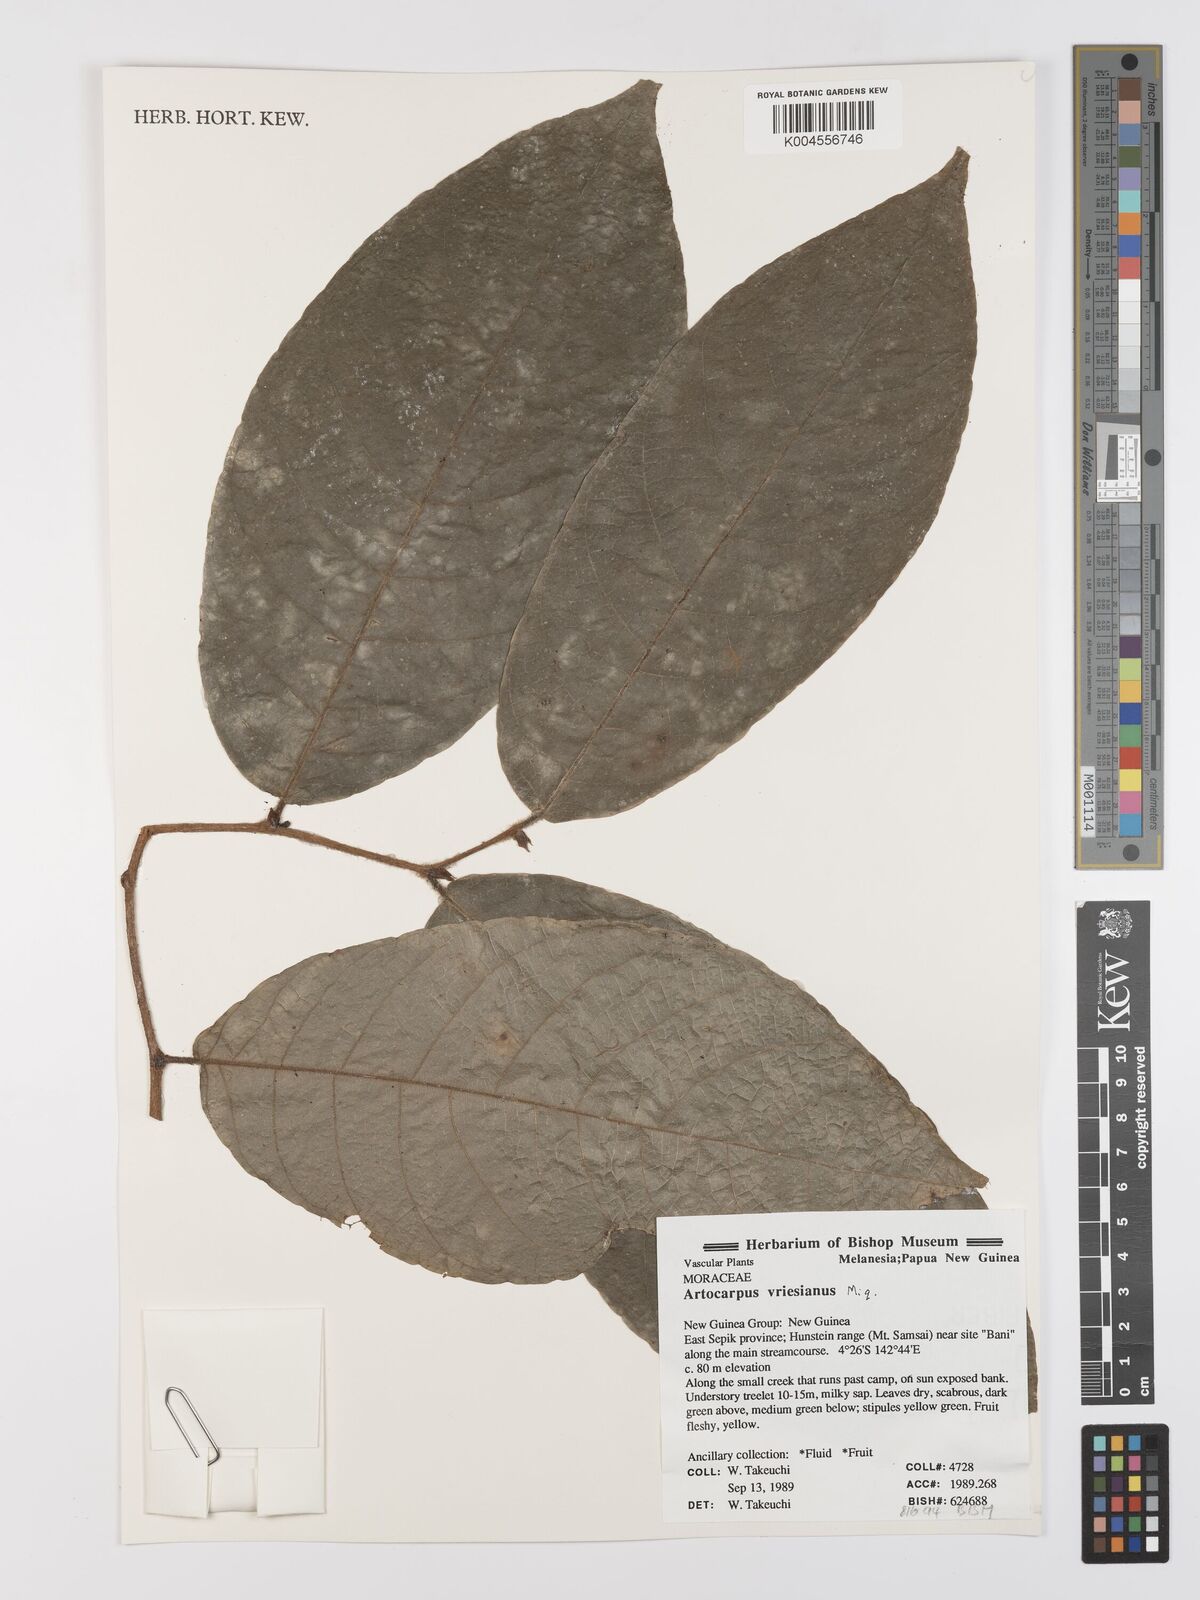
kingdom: Plantae
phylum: Tracheophyta
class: Magnoliopsida
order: Rosales
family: Moraceae
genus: Artocarpus
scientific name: Artocarpus vrieseanus
